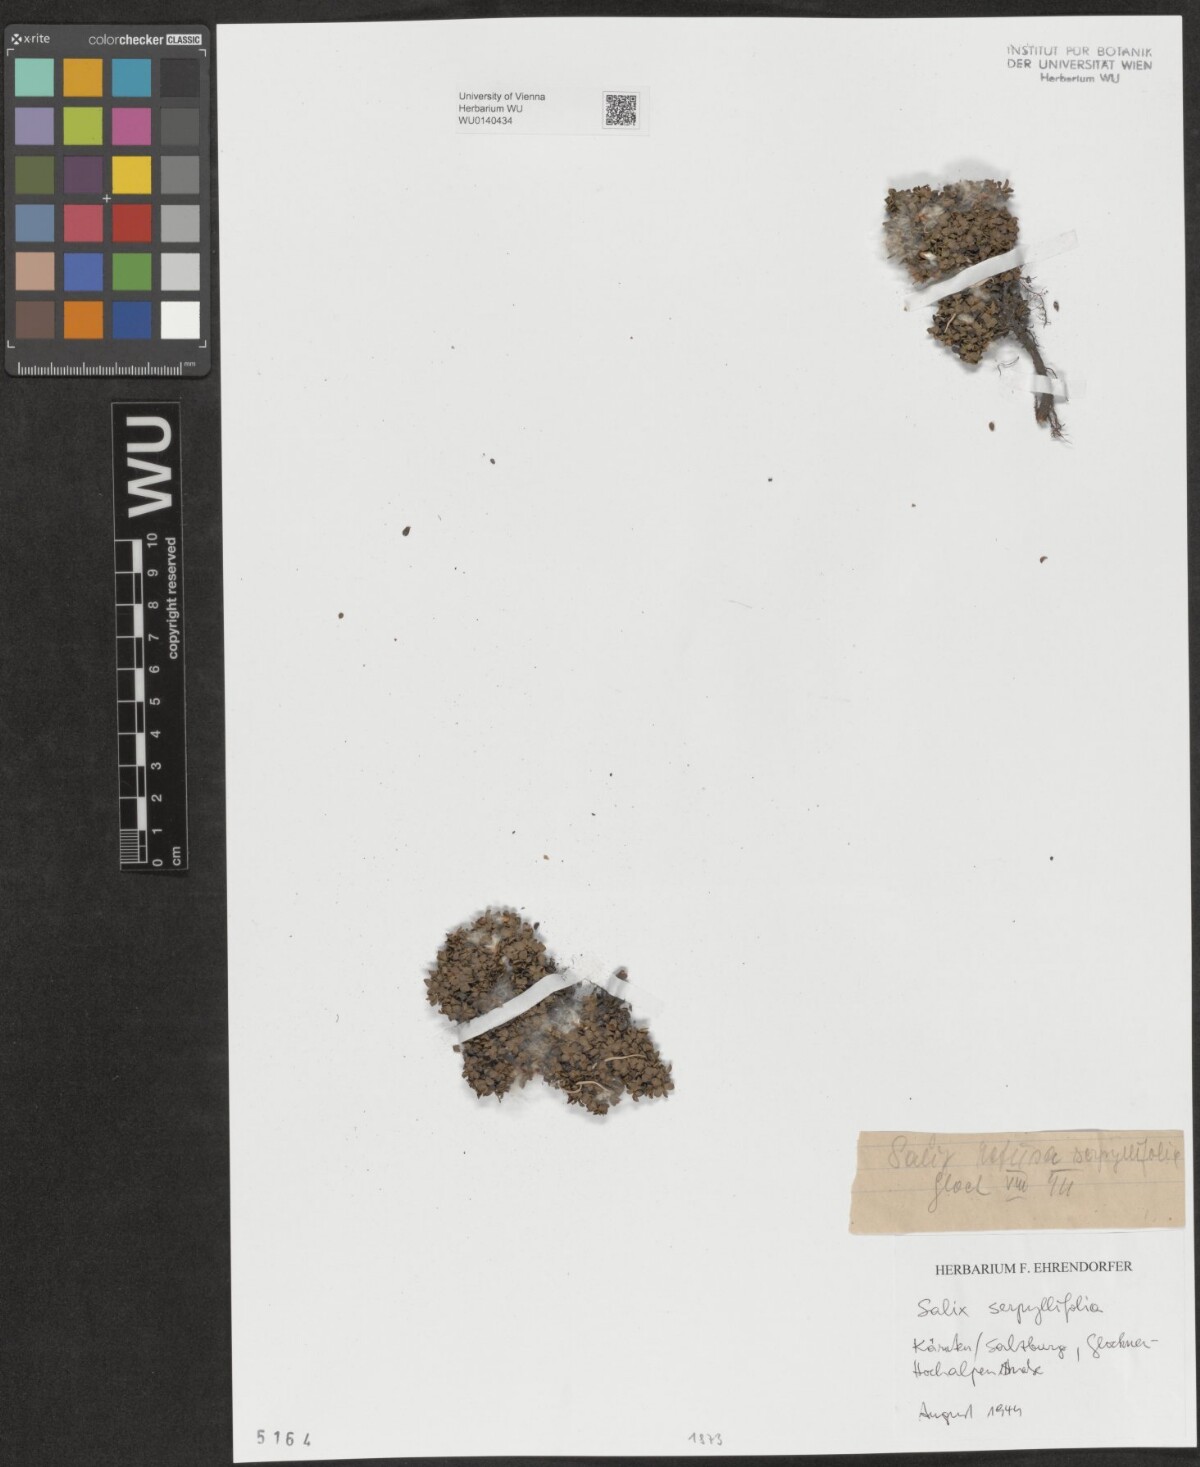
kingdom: Plantae
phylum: Tracheophyta
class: Magnoliopsida
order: Malpighiales
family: Salicaceae
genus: Salix
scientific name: Salix serpillifolia
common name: Thyme-leaf willow
